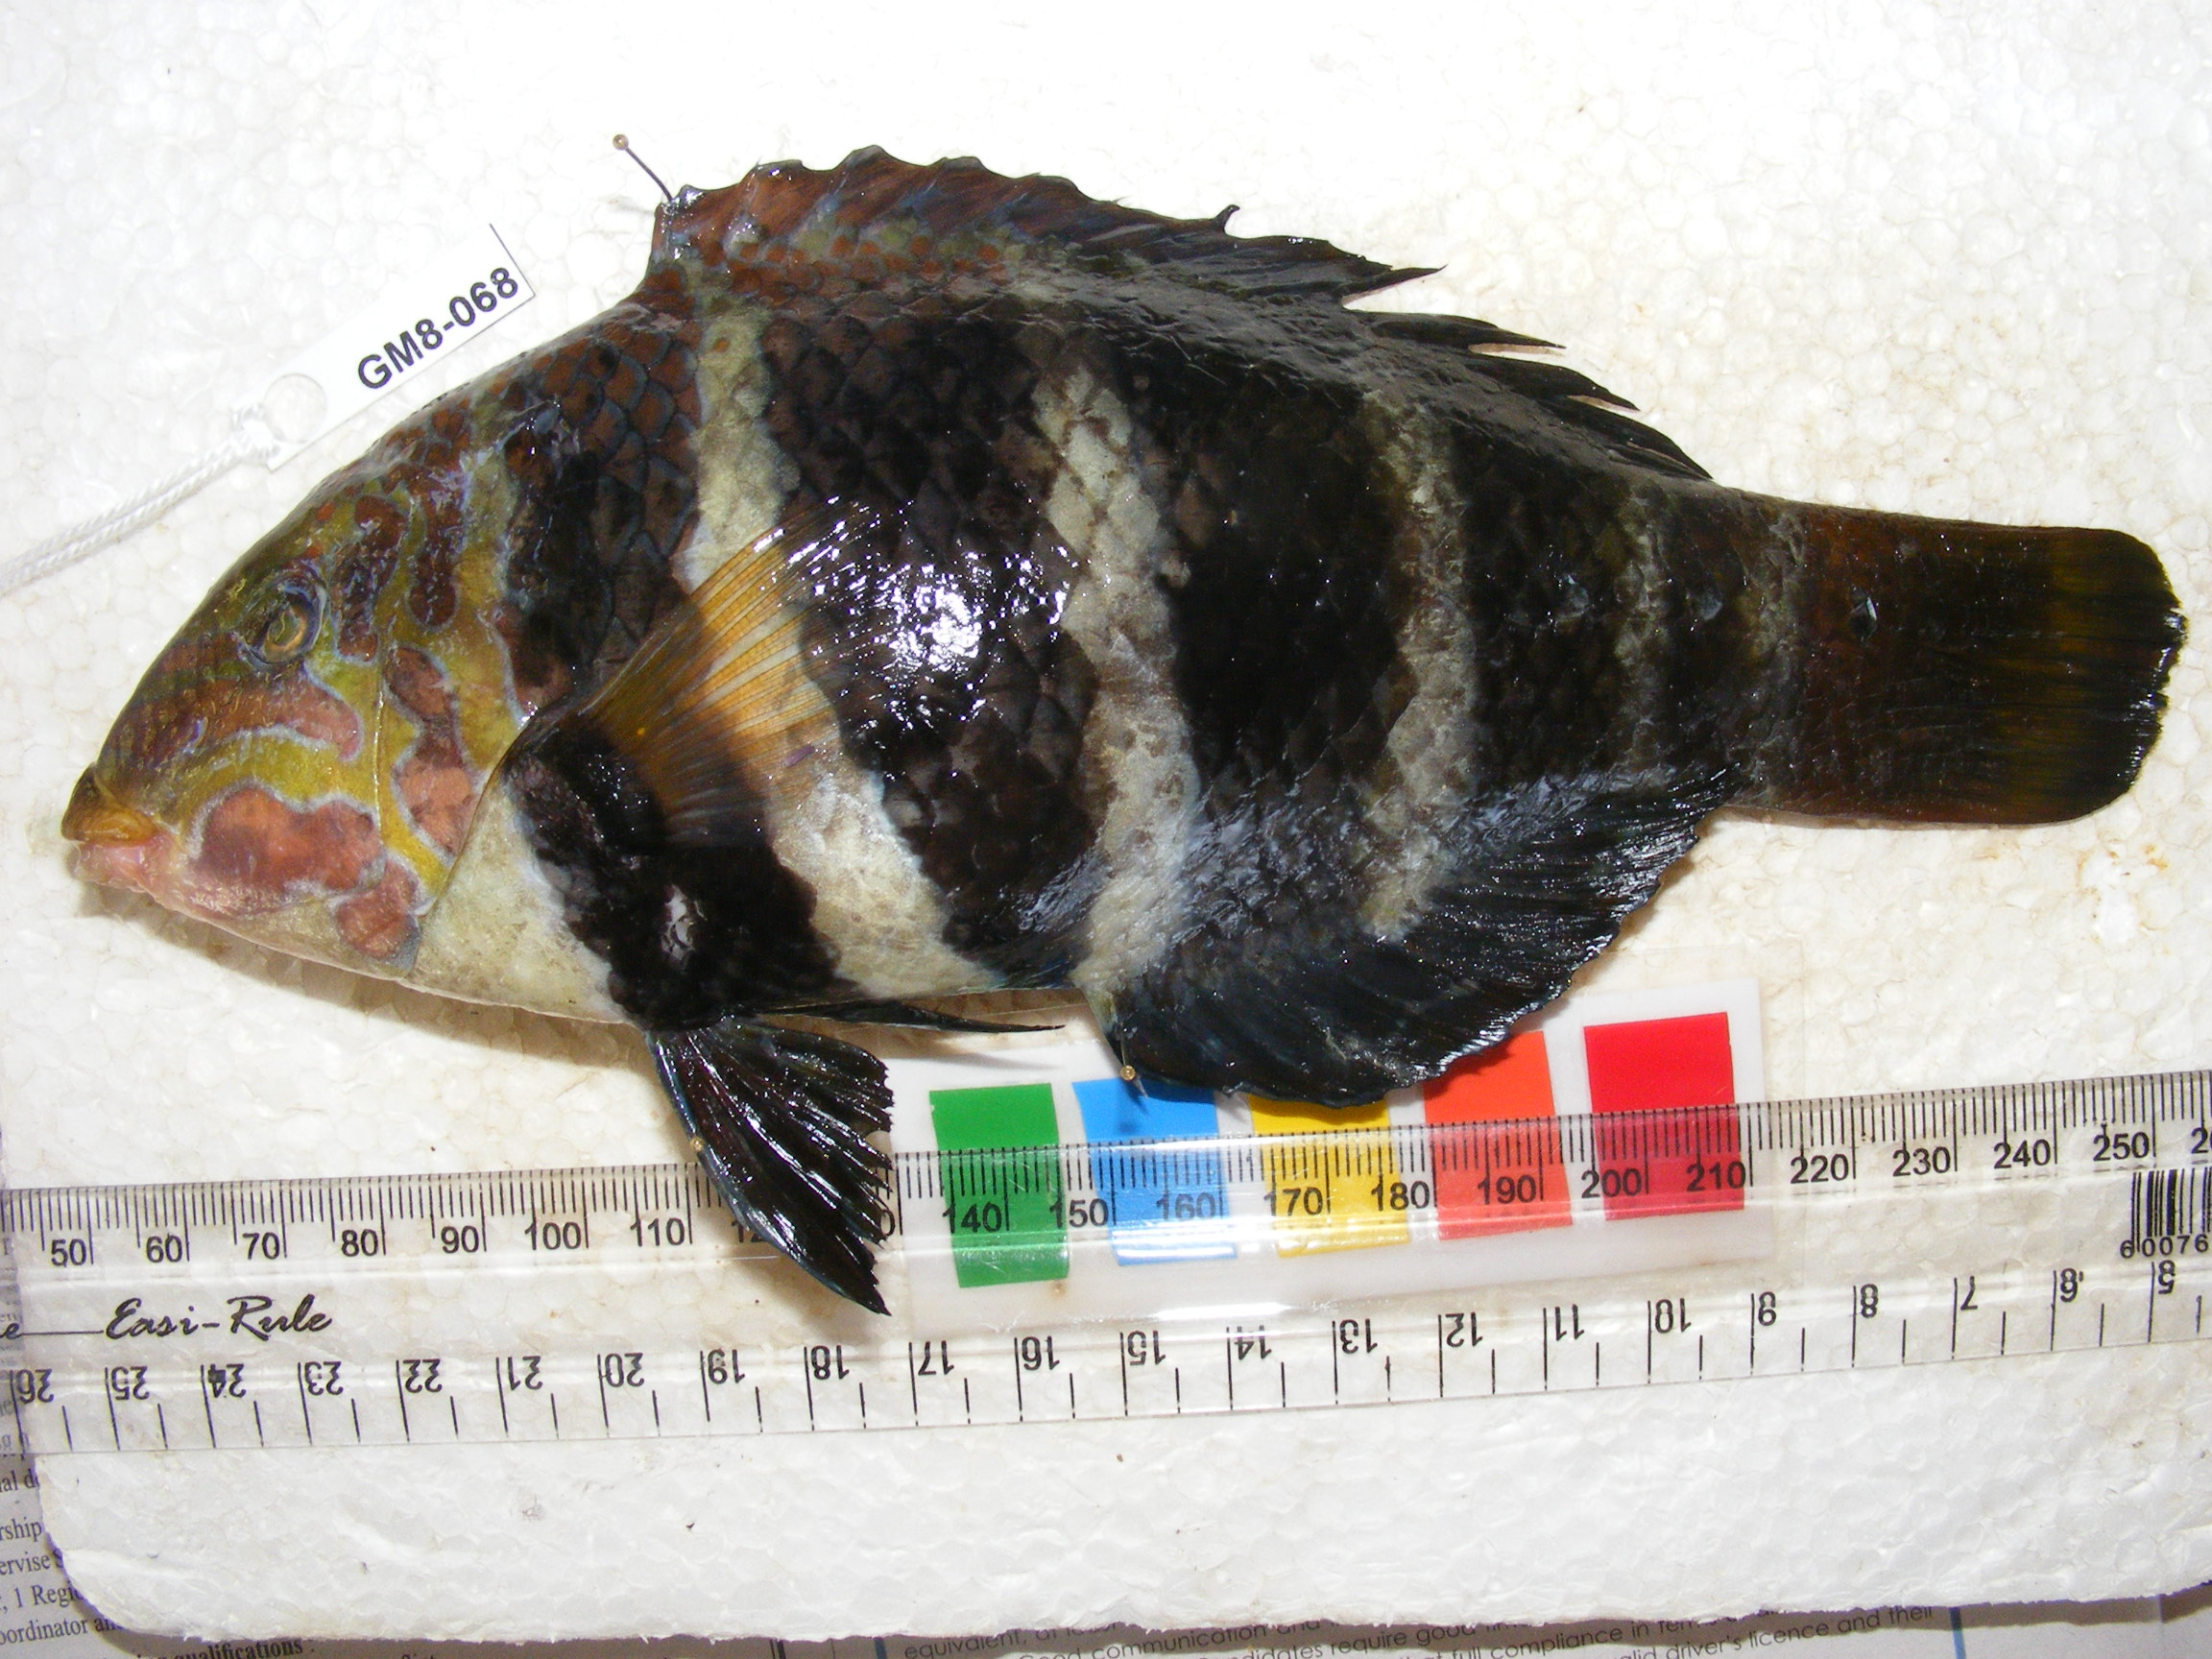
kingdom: Animalia
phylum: Chordata
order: Perciformes
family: Labridae
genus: Hemigymnus
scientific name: Hemigymnus fasciatus
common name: Barred thicklip
